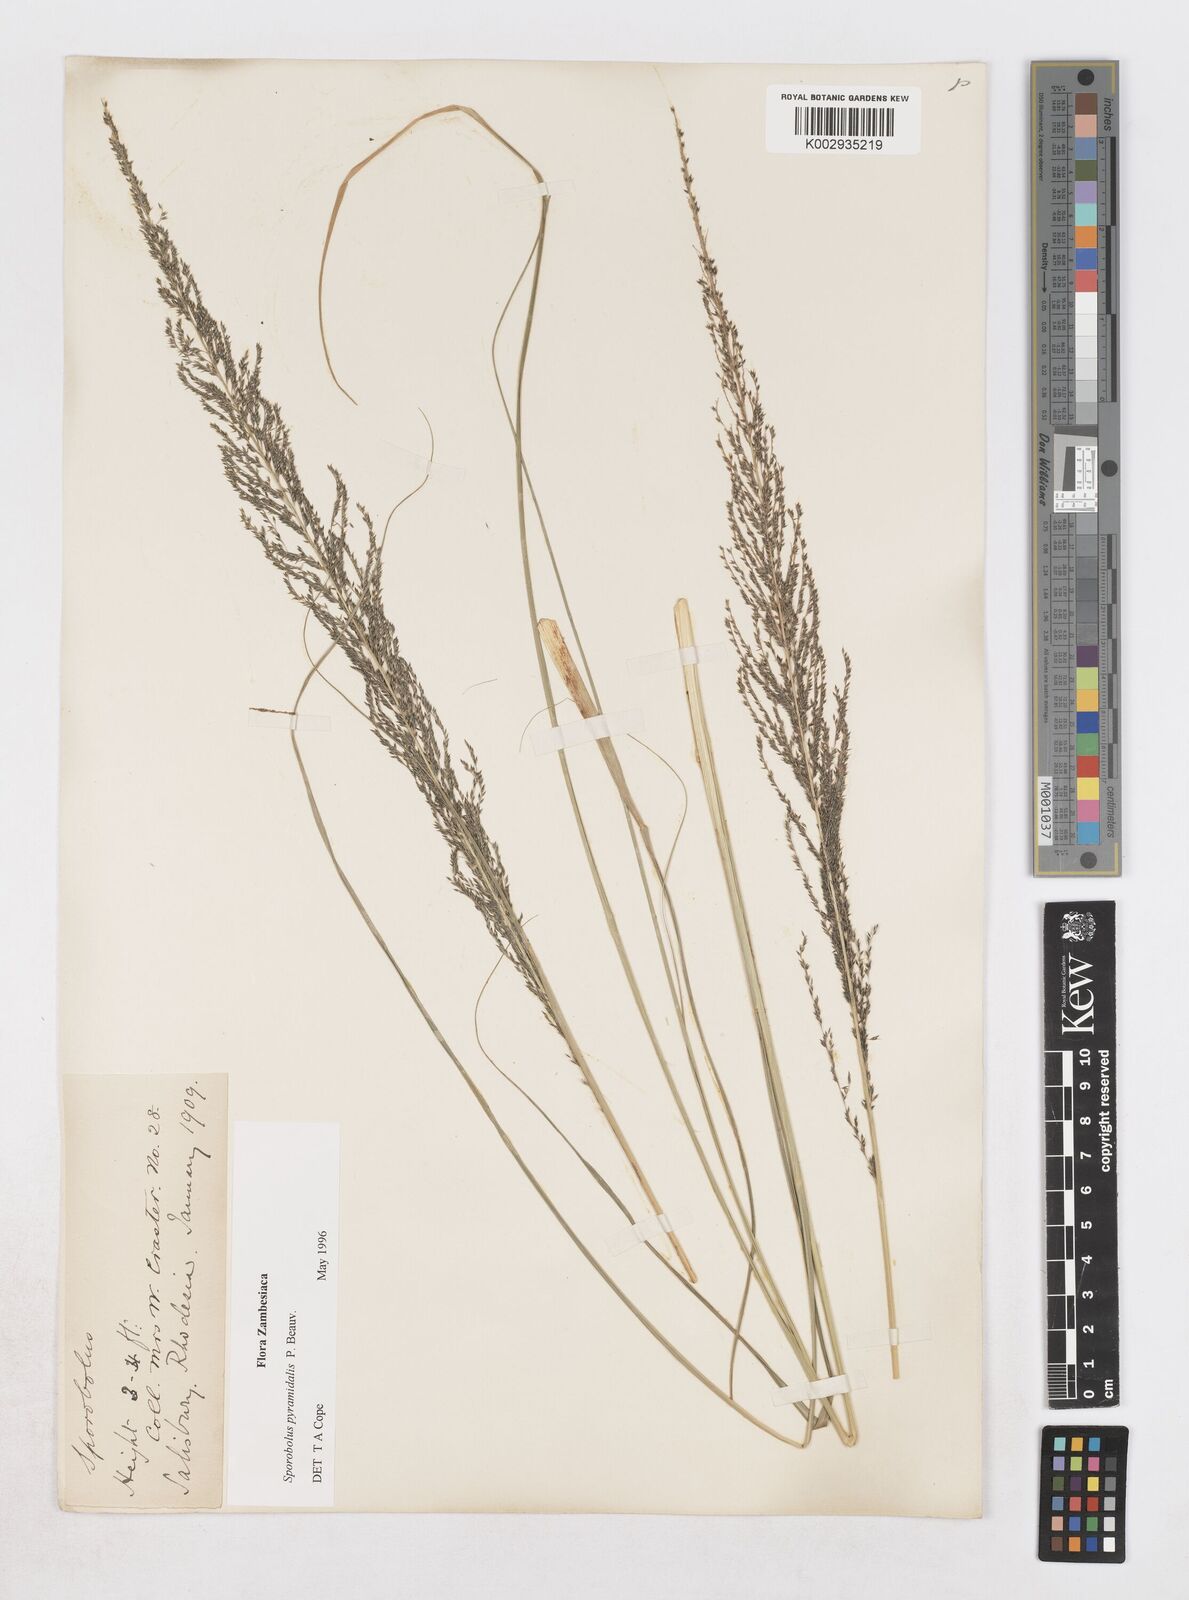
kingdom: Plantae
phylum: Tracheophyta
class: Liliopsida
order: Poales
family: Poaceae
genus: Sporobolus
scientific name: Sporobolus pyramidalis
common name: West indian dropseed
